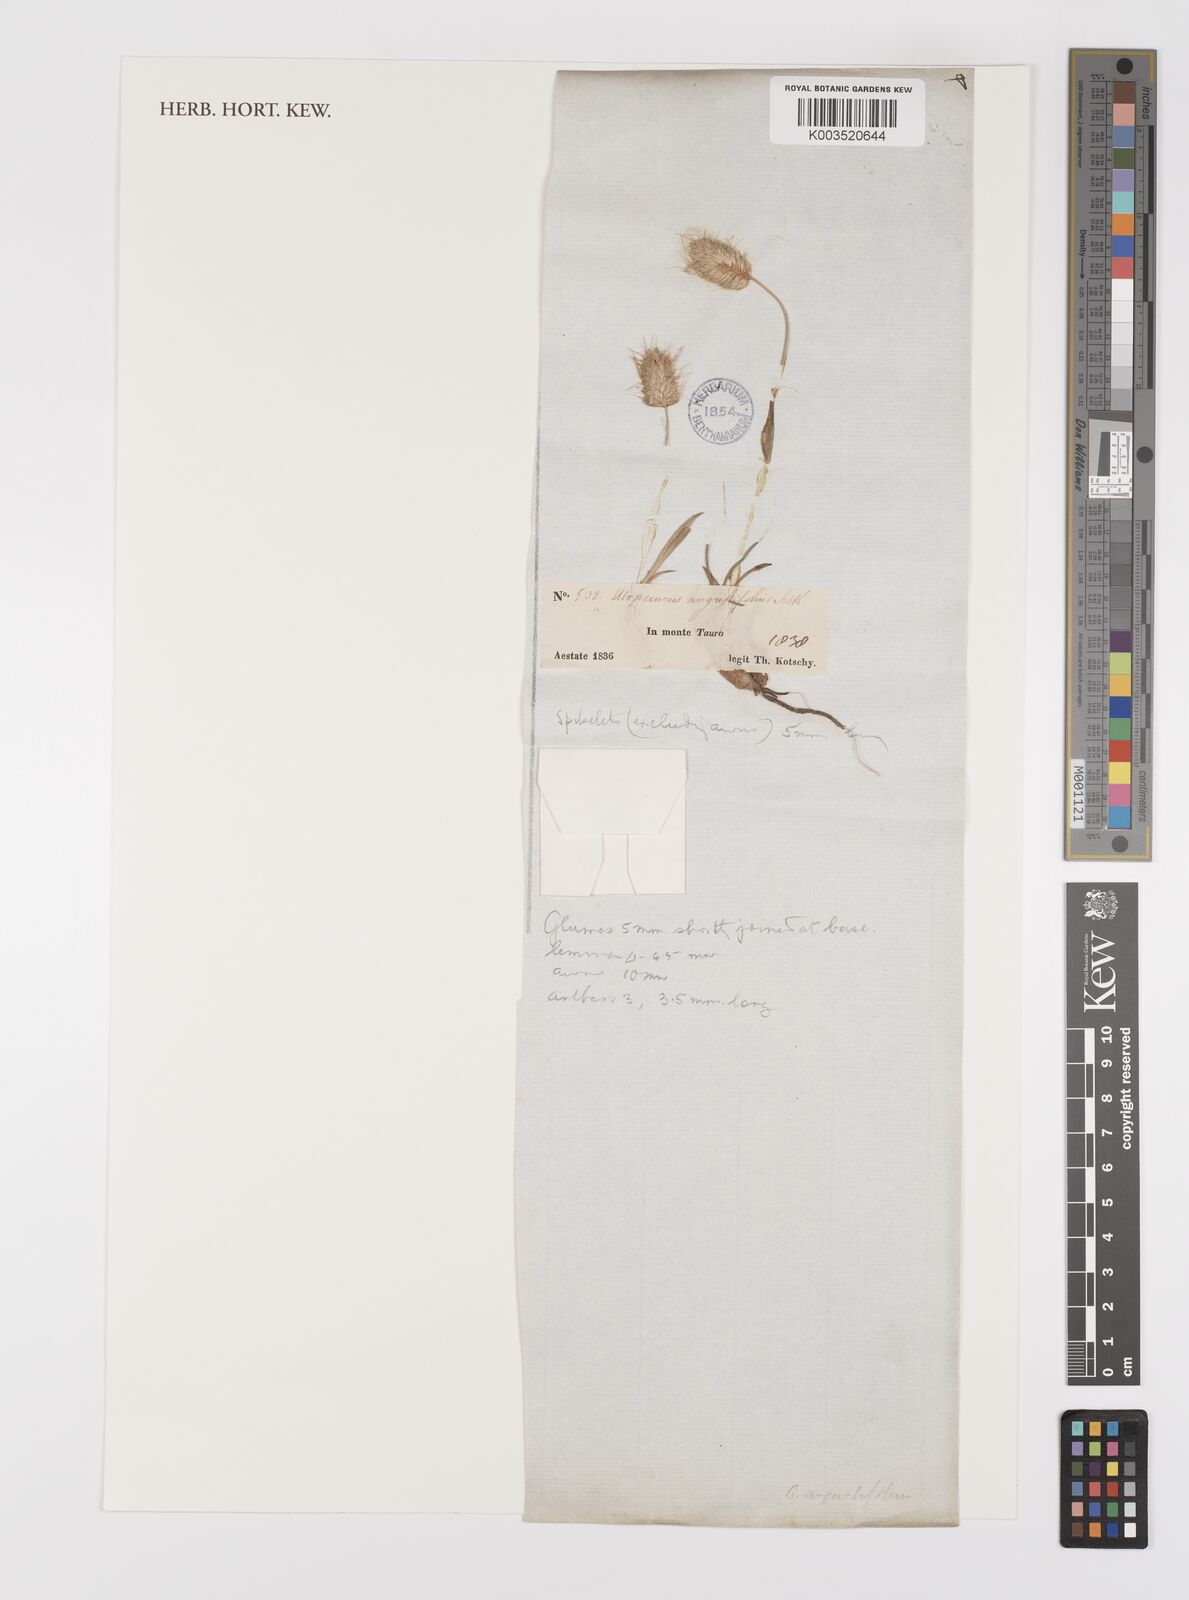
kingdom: Plantae
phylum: Tracheophyta
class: Liliopsida
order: Poales
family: Poaceae
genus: Alopecurus
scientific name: Alopecurus
